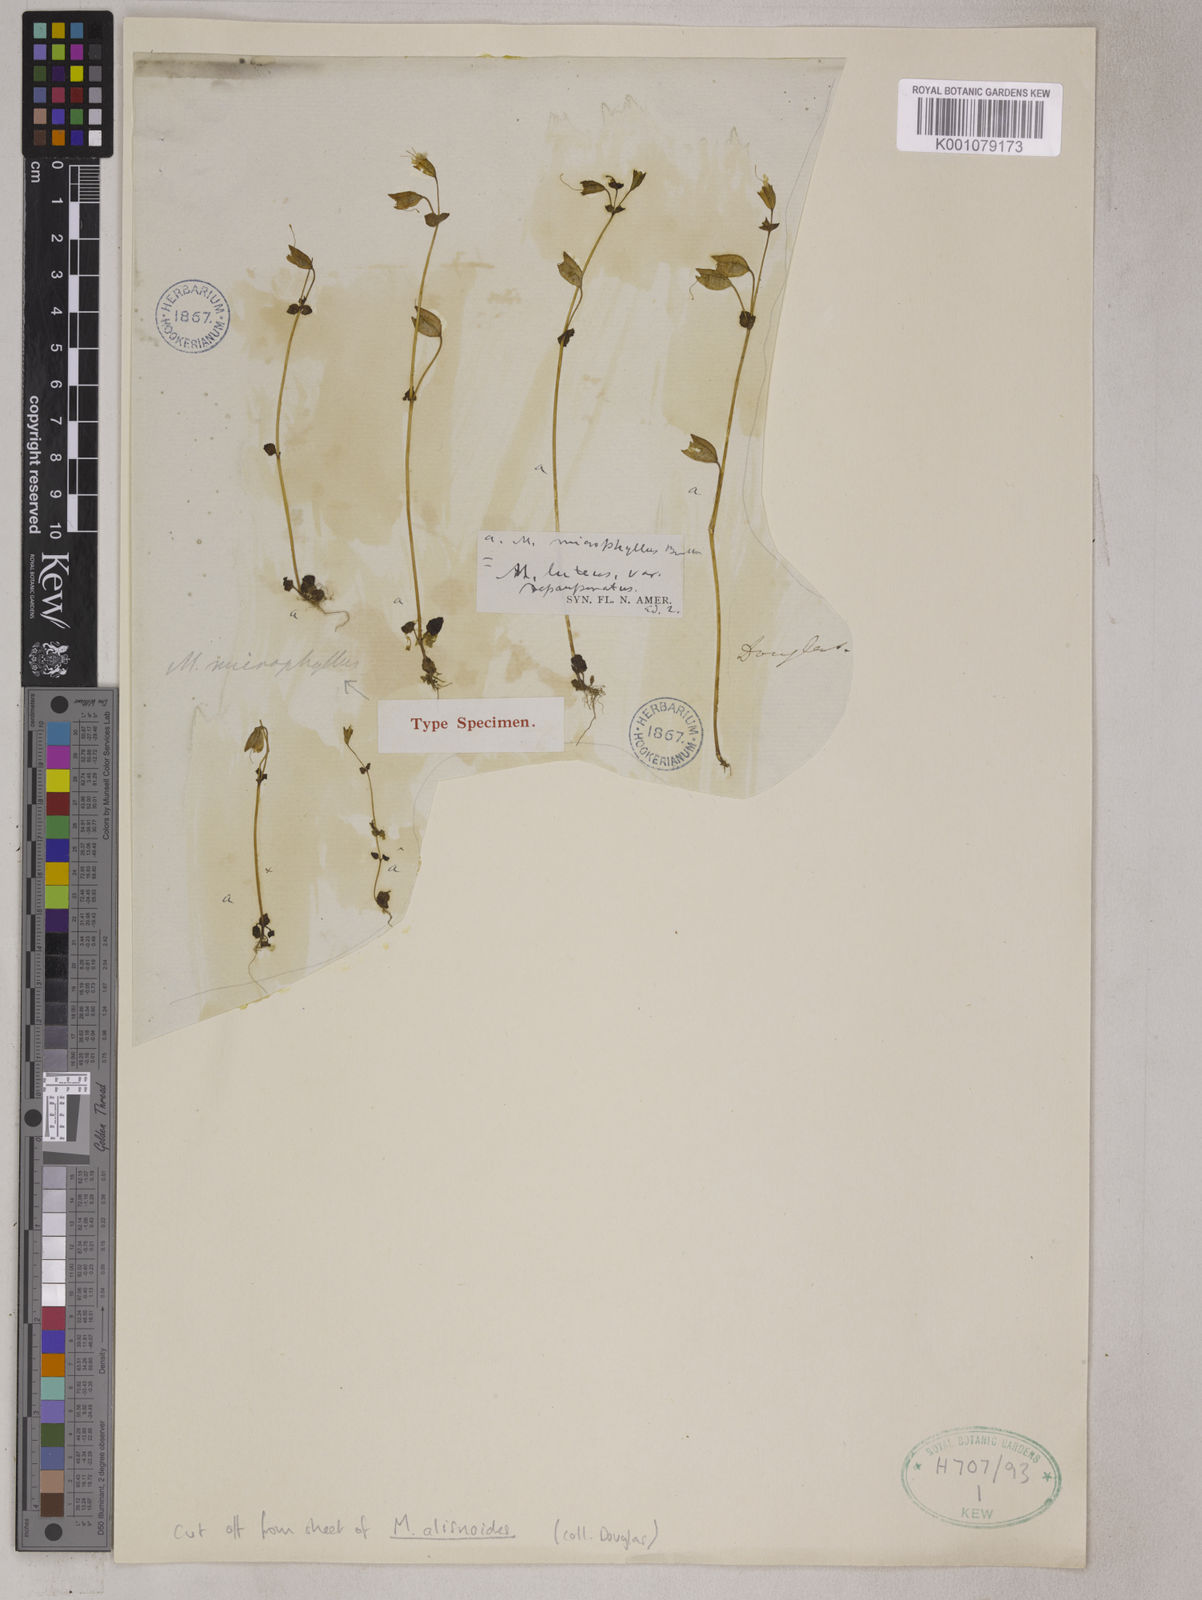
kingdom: Plantae
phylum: Tracheophyta
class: Magnoliopsida
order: Lamiales
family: Phrymaceae
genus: Erythranthe
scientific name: Erythranthe lutea
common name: Yellow monkey-flower
